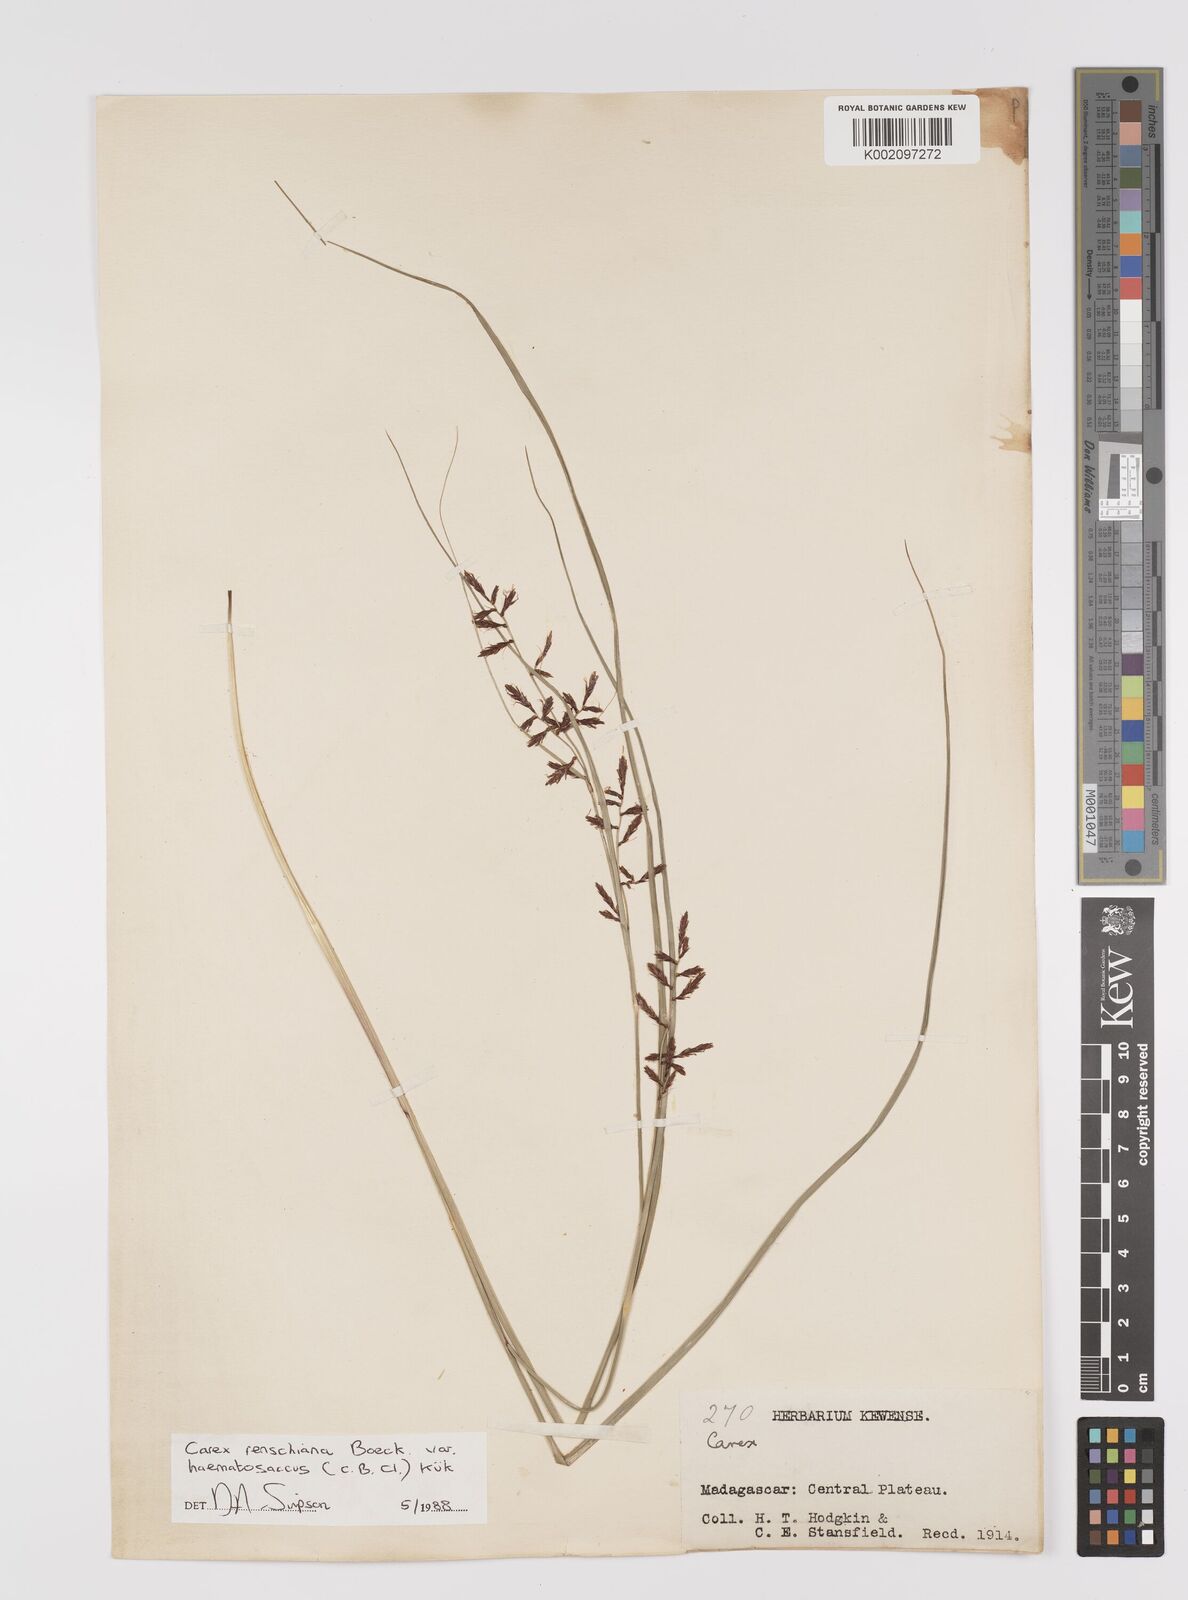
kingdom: Plantae
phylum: Tracheophyta
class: Liliopsida
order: Poales
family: Cyperaceae
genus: Carex
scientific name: Carex renschiana
